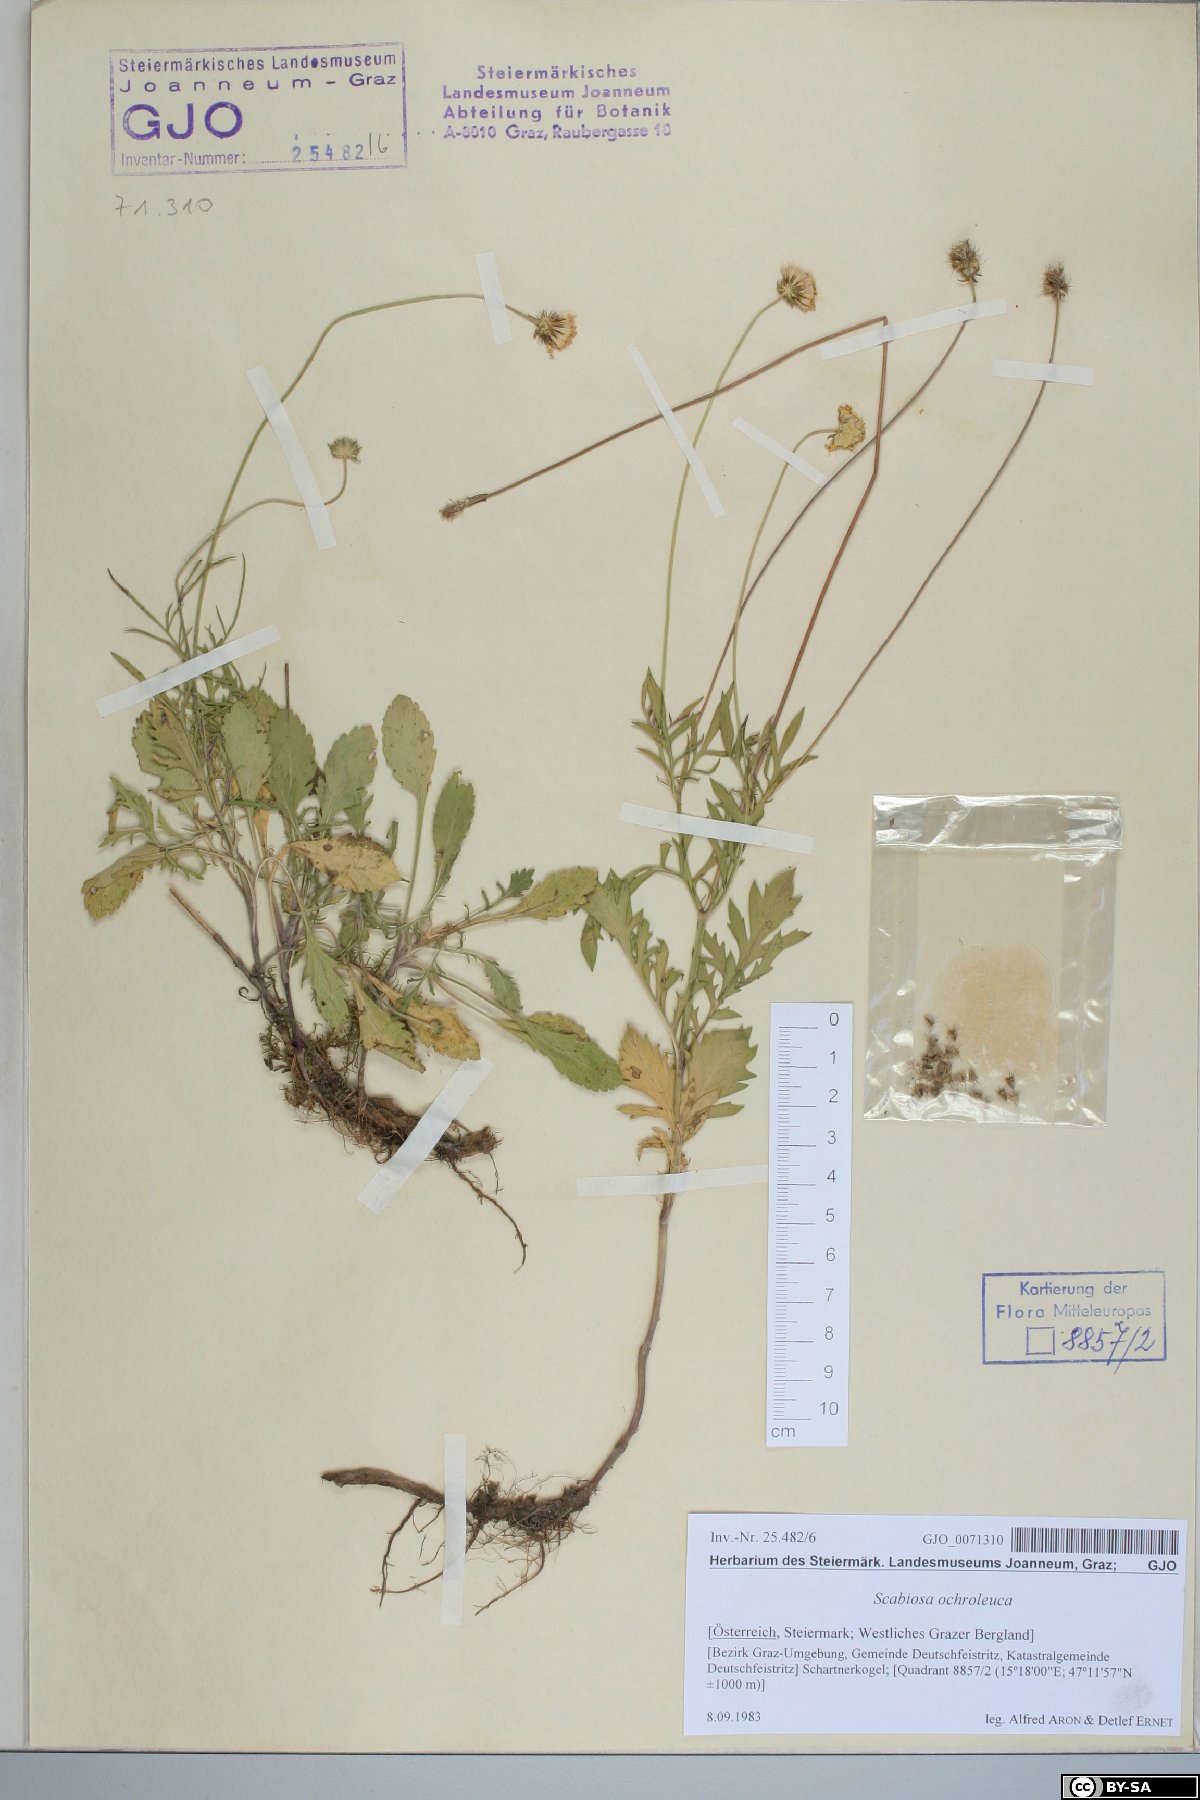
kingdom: Plantae
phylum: Tracheophyta
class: Magnoliopsida
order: Dipsacales
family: Caprifoliaceae
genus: Scabiosa
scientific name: Scabiosa ochroleuca
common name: Cream pincushions
